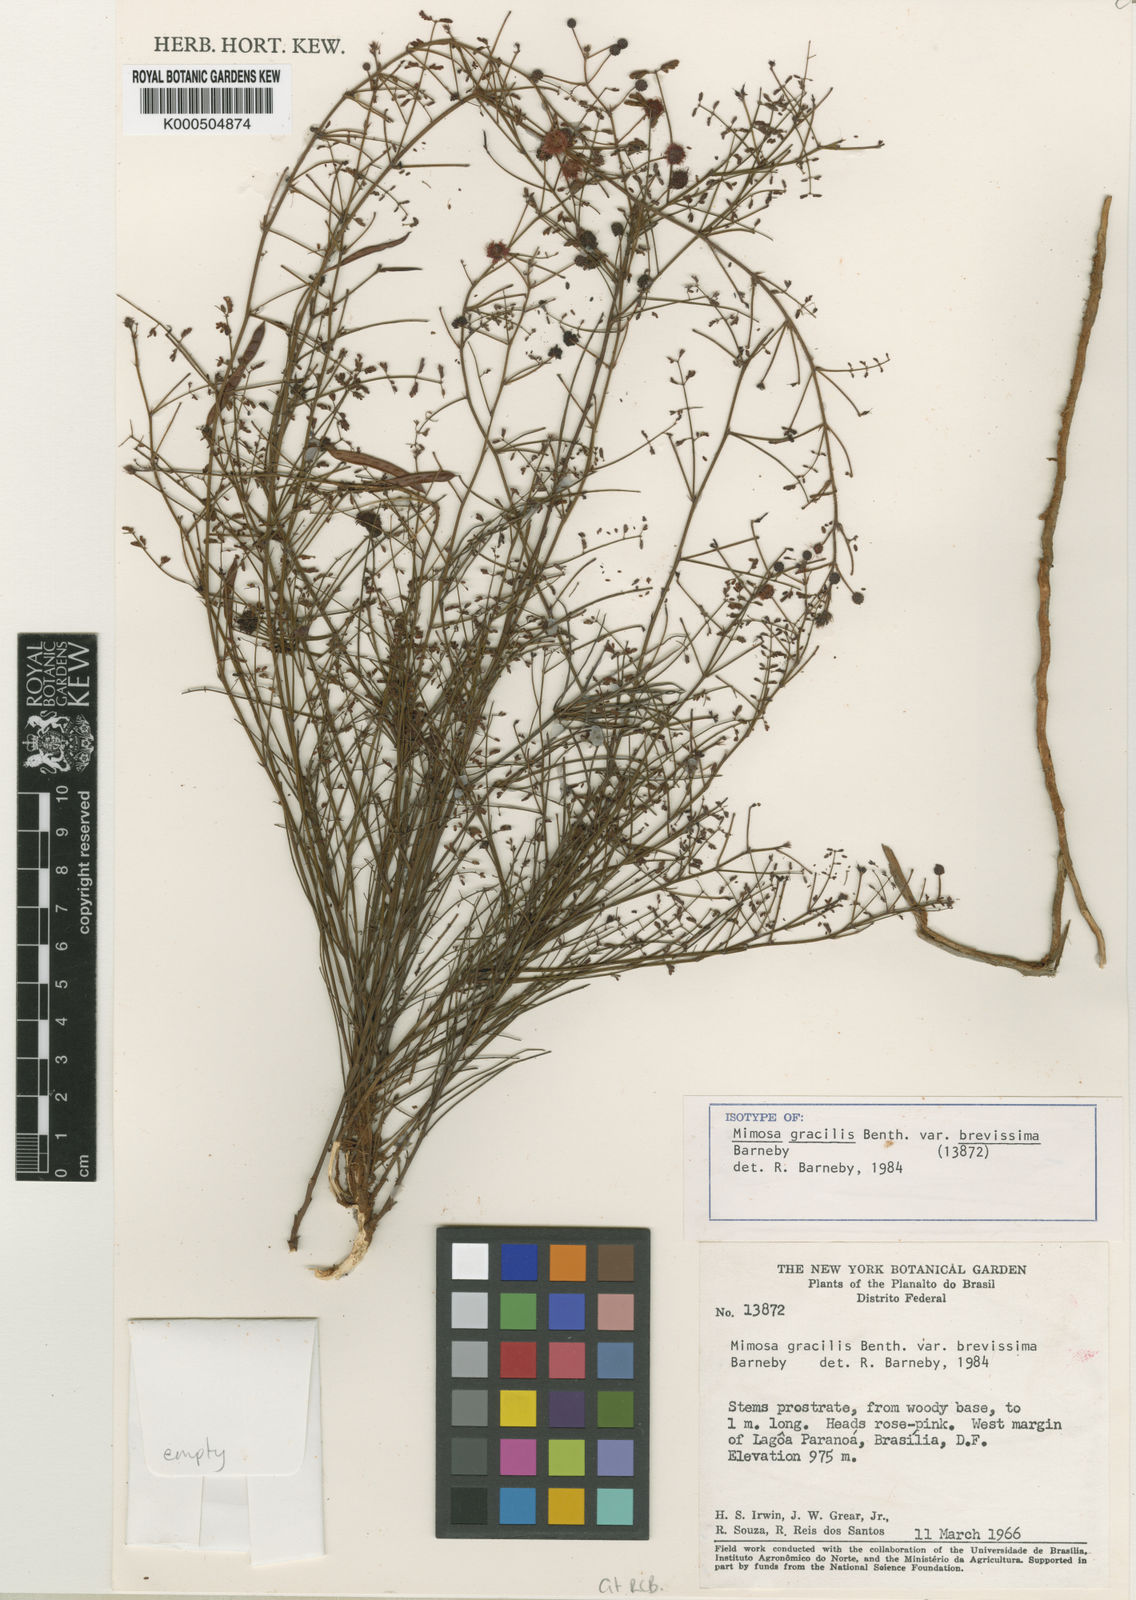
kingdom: Plantae
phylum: Tracheophyta
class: Magnoliopsida
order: Fabales
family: Fabaceae
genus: Mimosa
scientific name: Mimosa gracilis
